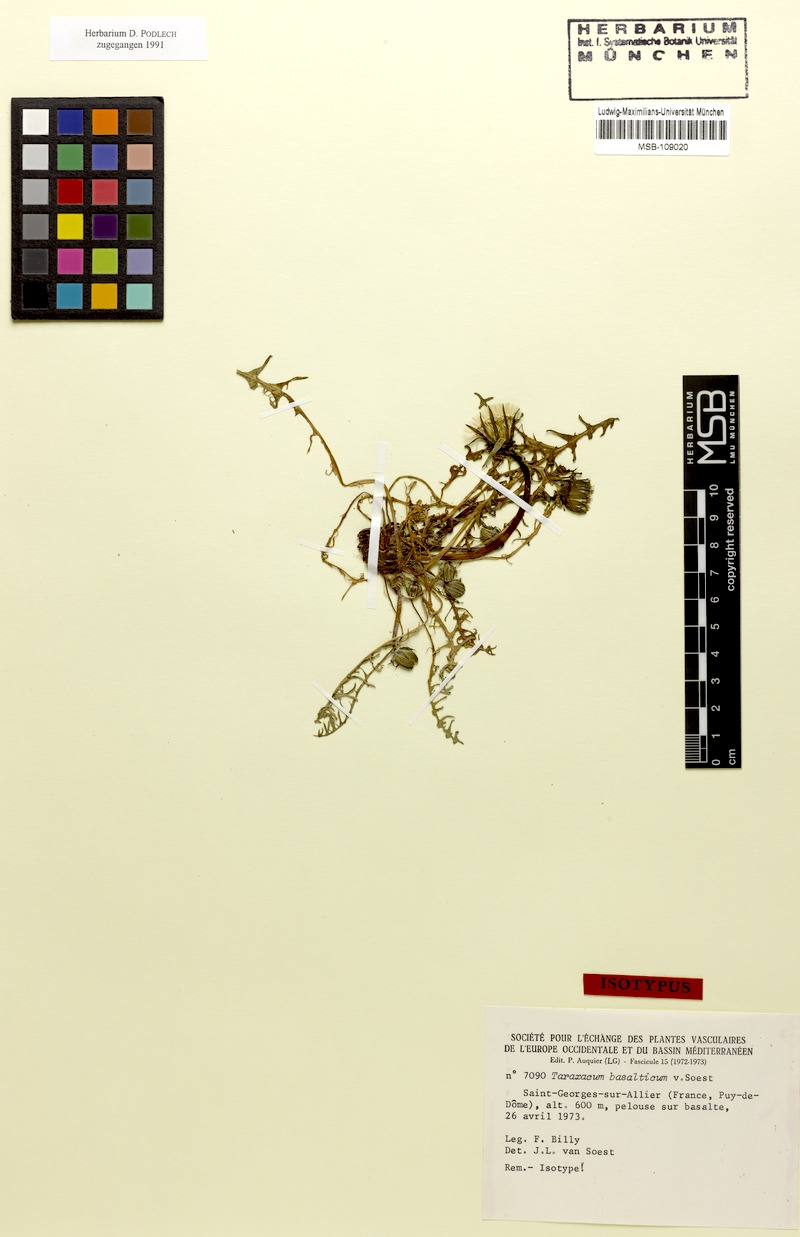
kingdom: Plantae
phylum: Tracheophyta
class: Magnoliopsida
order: Asterales
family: Asteraceae
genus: Taraxacum
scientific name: Taraxacum basalticum
